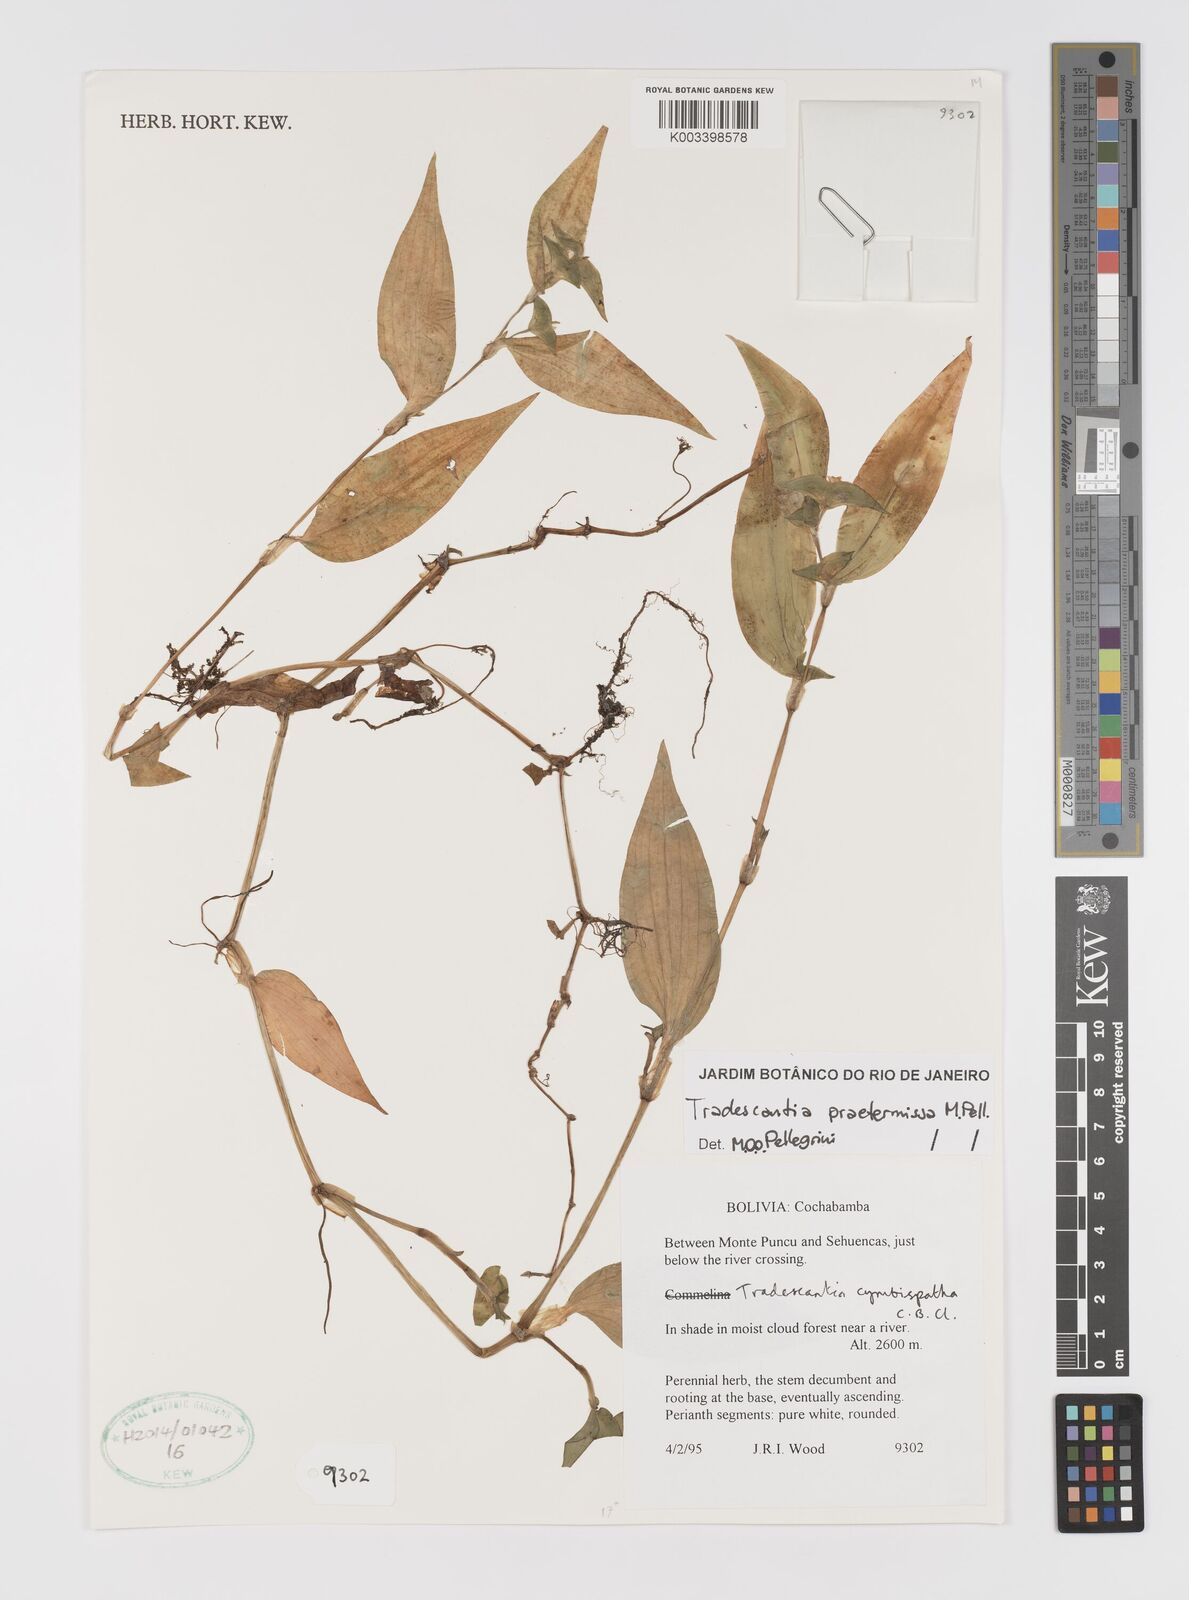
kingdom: Plantae
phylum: Tracheophyta
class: Liliopsida
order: Commelinales
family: Commelinaceae
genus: Tradescantia
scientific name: Tradescantia praetermissa
